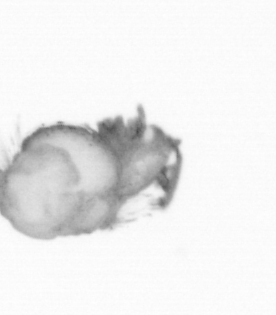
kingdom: Animalia
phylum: Arthropoda
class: Copepoda
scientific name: Copepoda
